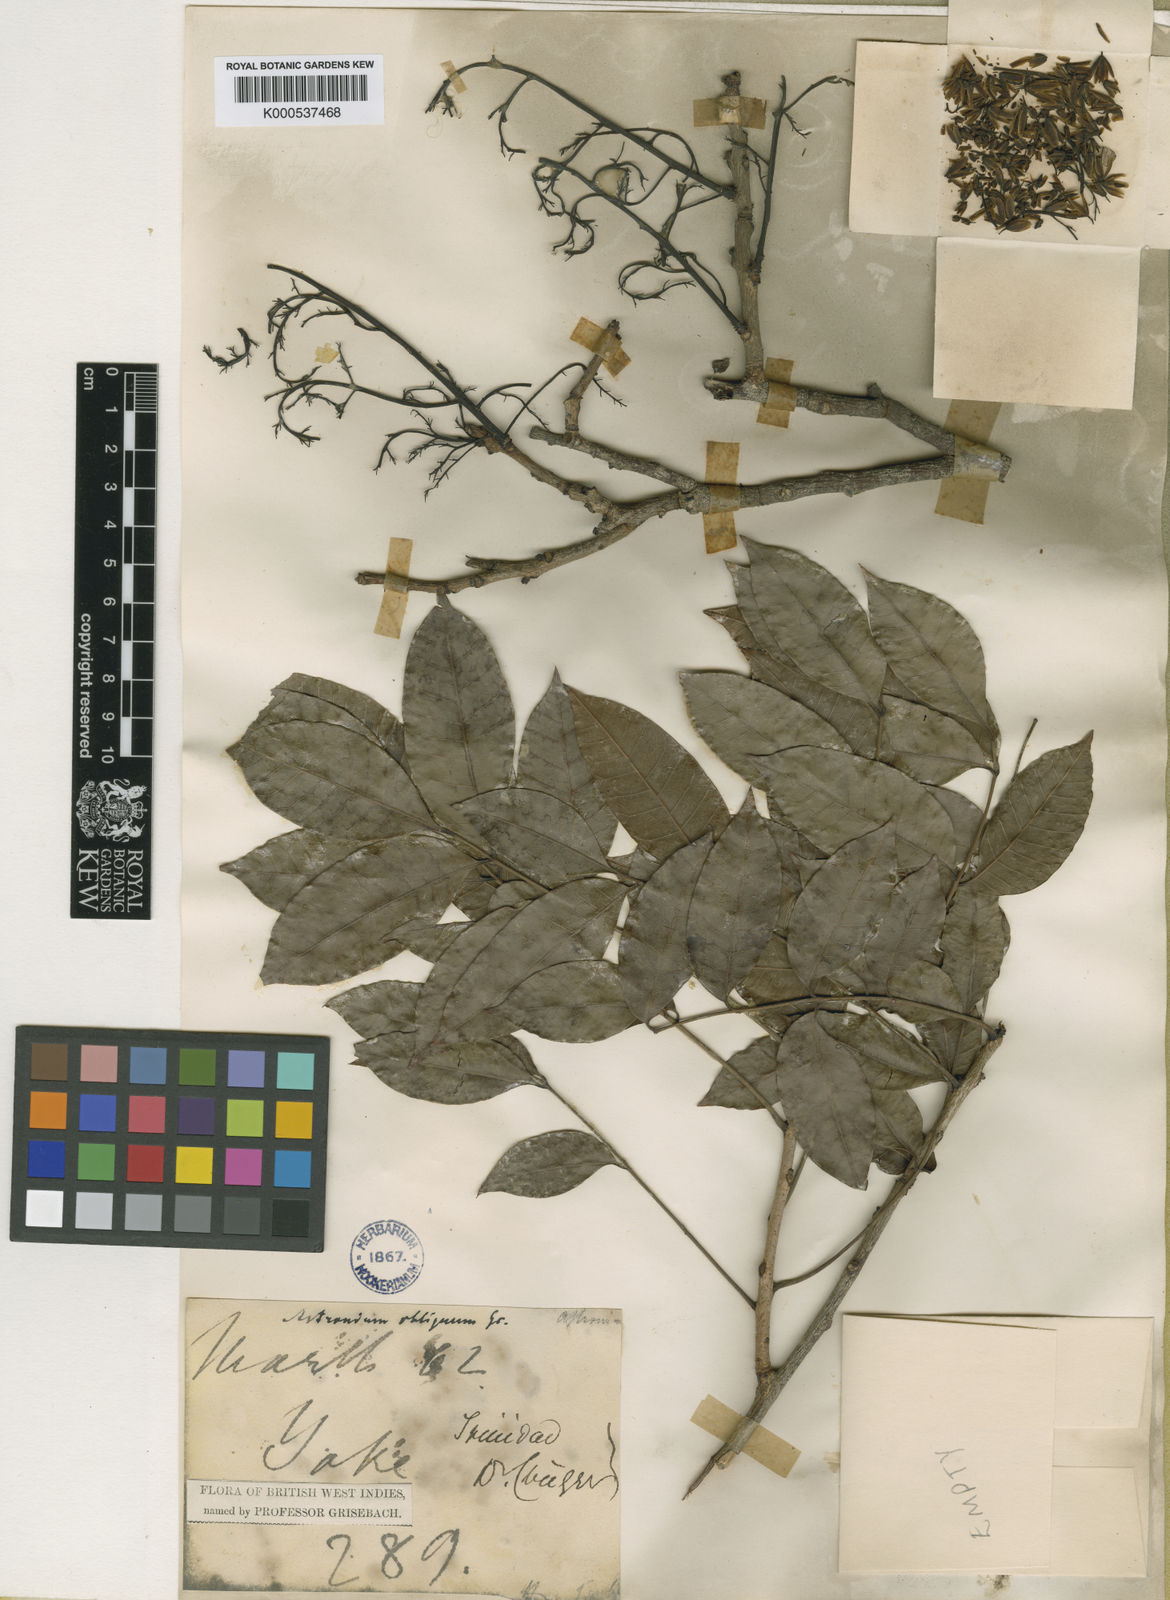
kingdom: Plantae
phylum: Tracheophyta
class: Magnoliopsida
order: Sapindales
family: Anacardiaceae
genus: Astronium
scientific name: Astronium obliquum
